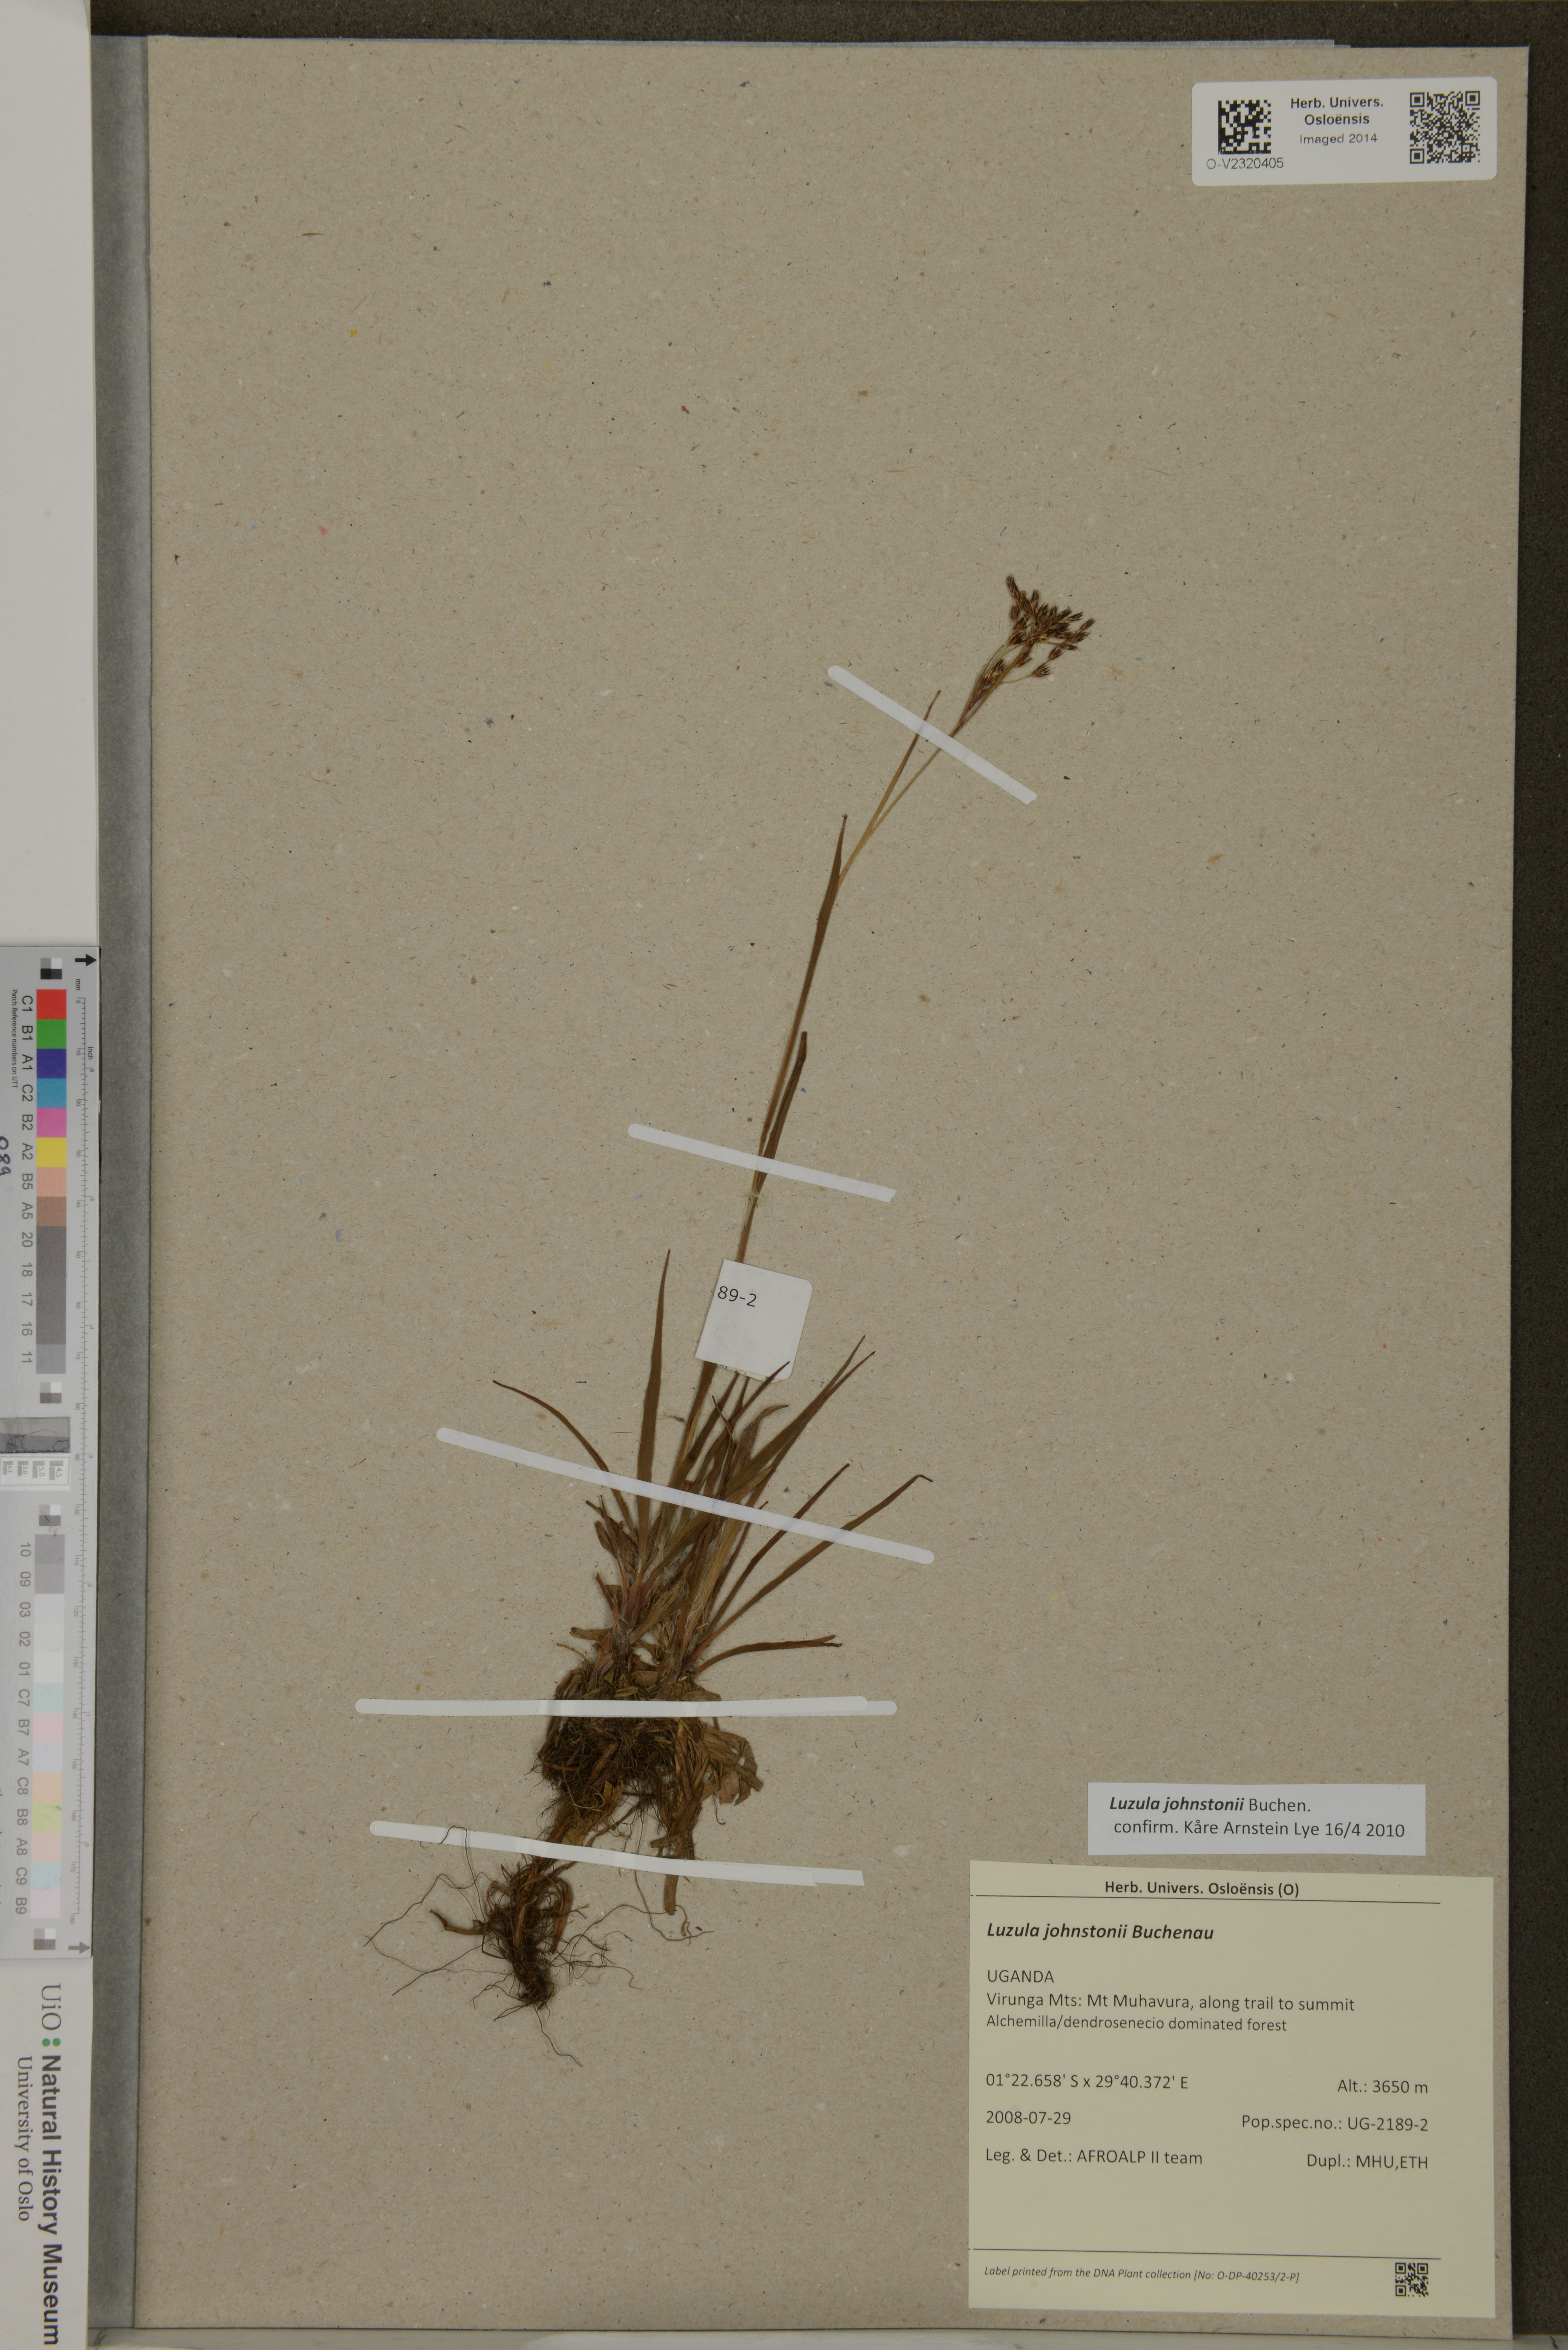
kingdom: Plantae
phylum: Tracheophyta
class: Liliopsida
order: Poales
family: Juncaceae
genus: Luzula
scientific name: Luzula johnstonii
